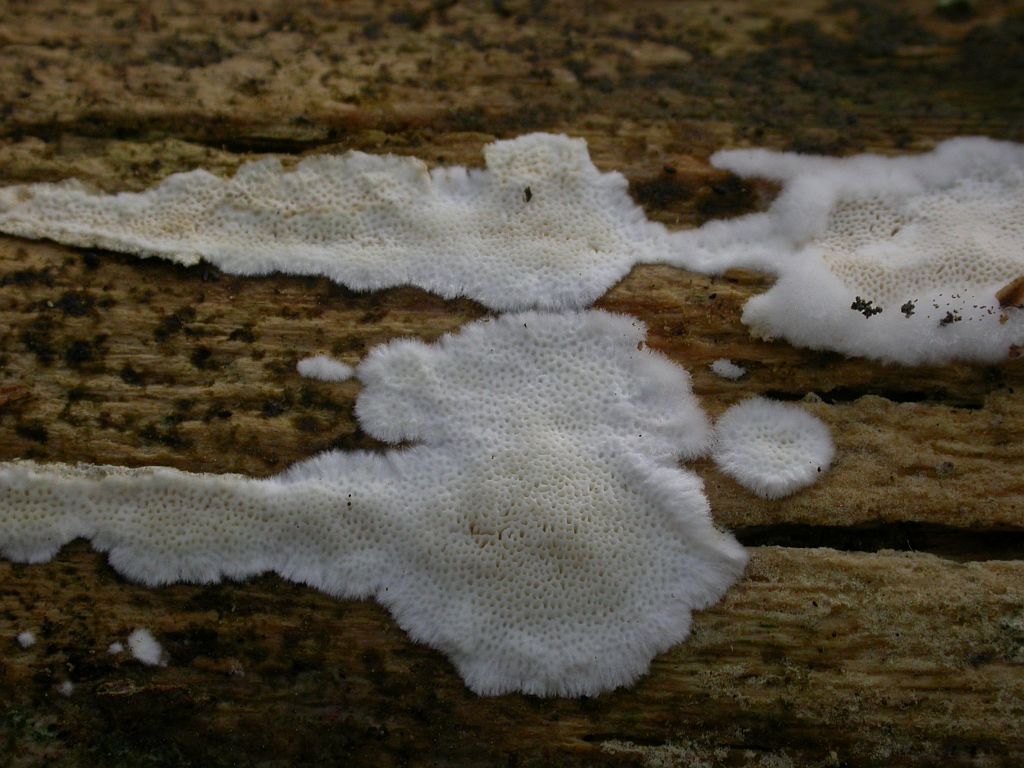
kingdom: Fungi
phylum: Basidiomycota
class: Agaricomycetes
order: Polyporales
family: Incrustoporiaceae
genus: Skeletocutis
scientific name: Skeletocutis subincarnata
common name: kødfarvet krystalporesvamp
